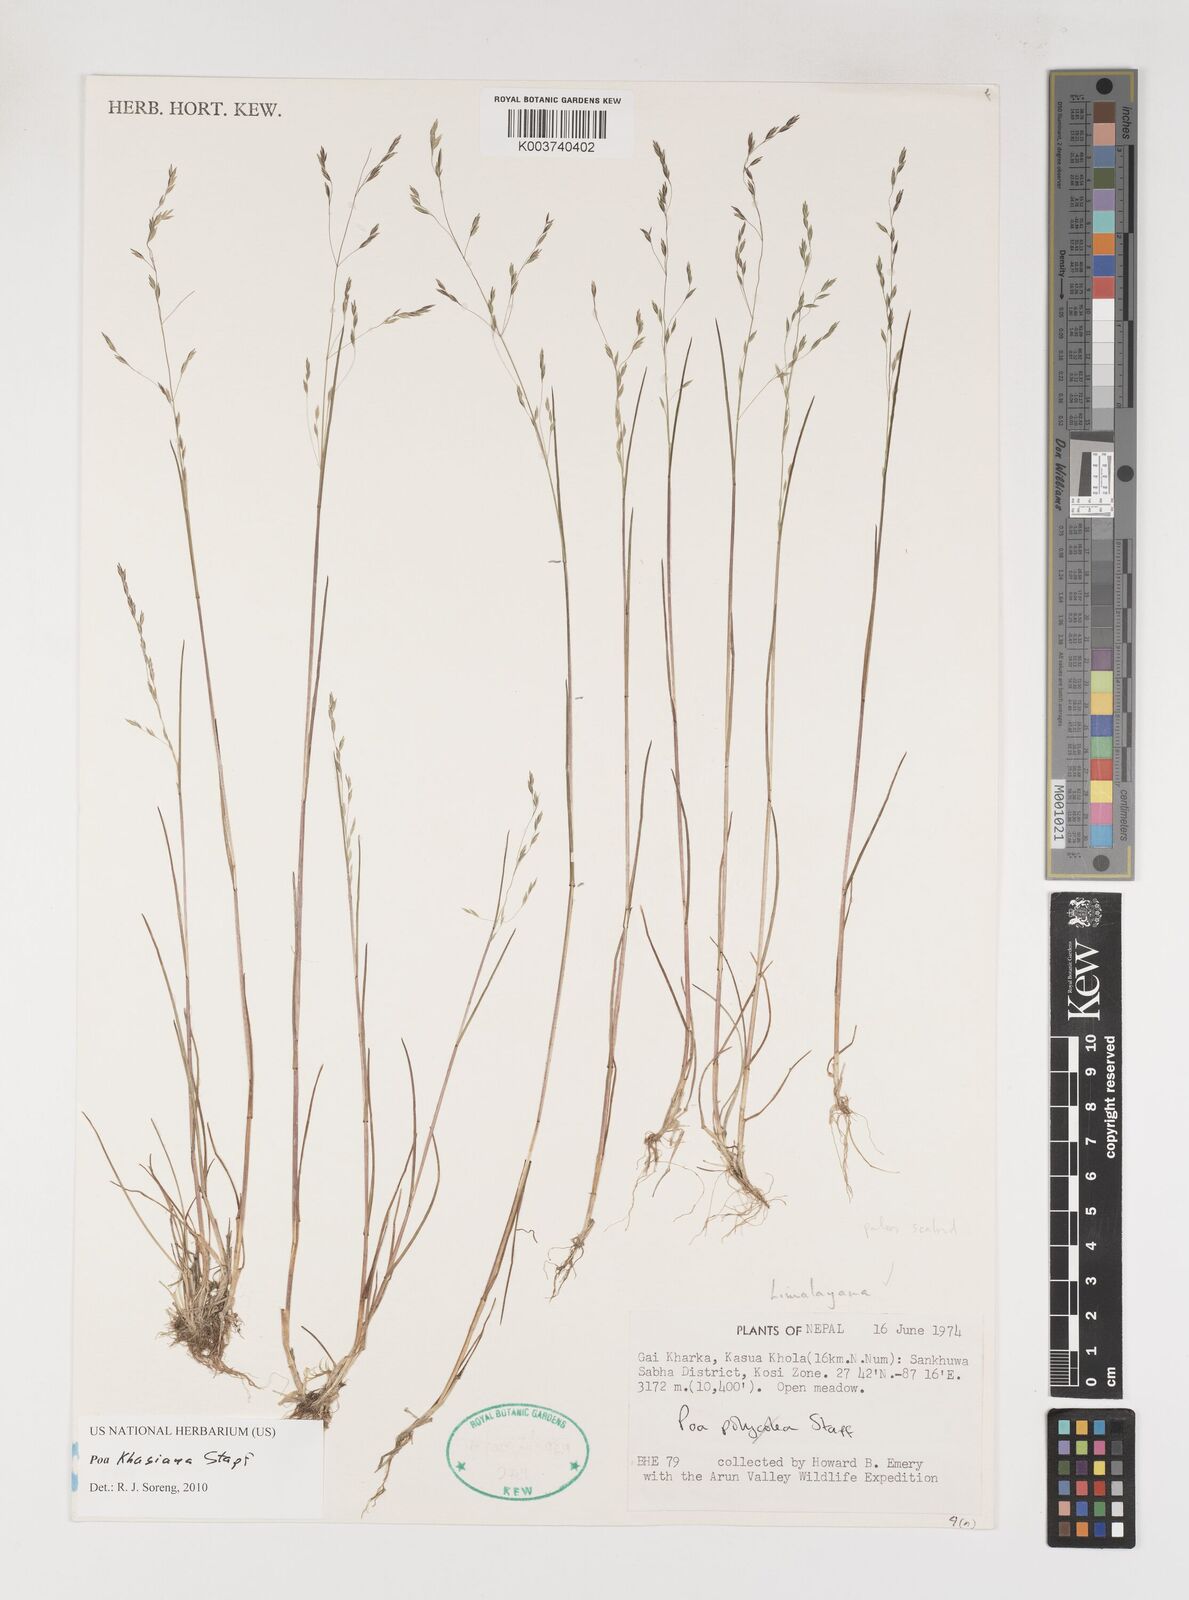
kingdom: Plantae
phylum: Tracheophyta
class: Liliopsida
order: Poales
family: Poaceae
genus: Poa
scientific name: Poa khasiana
